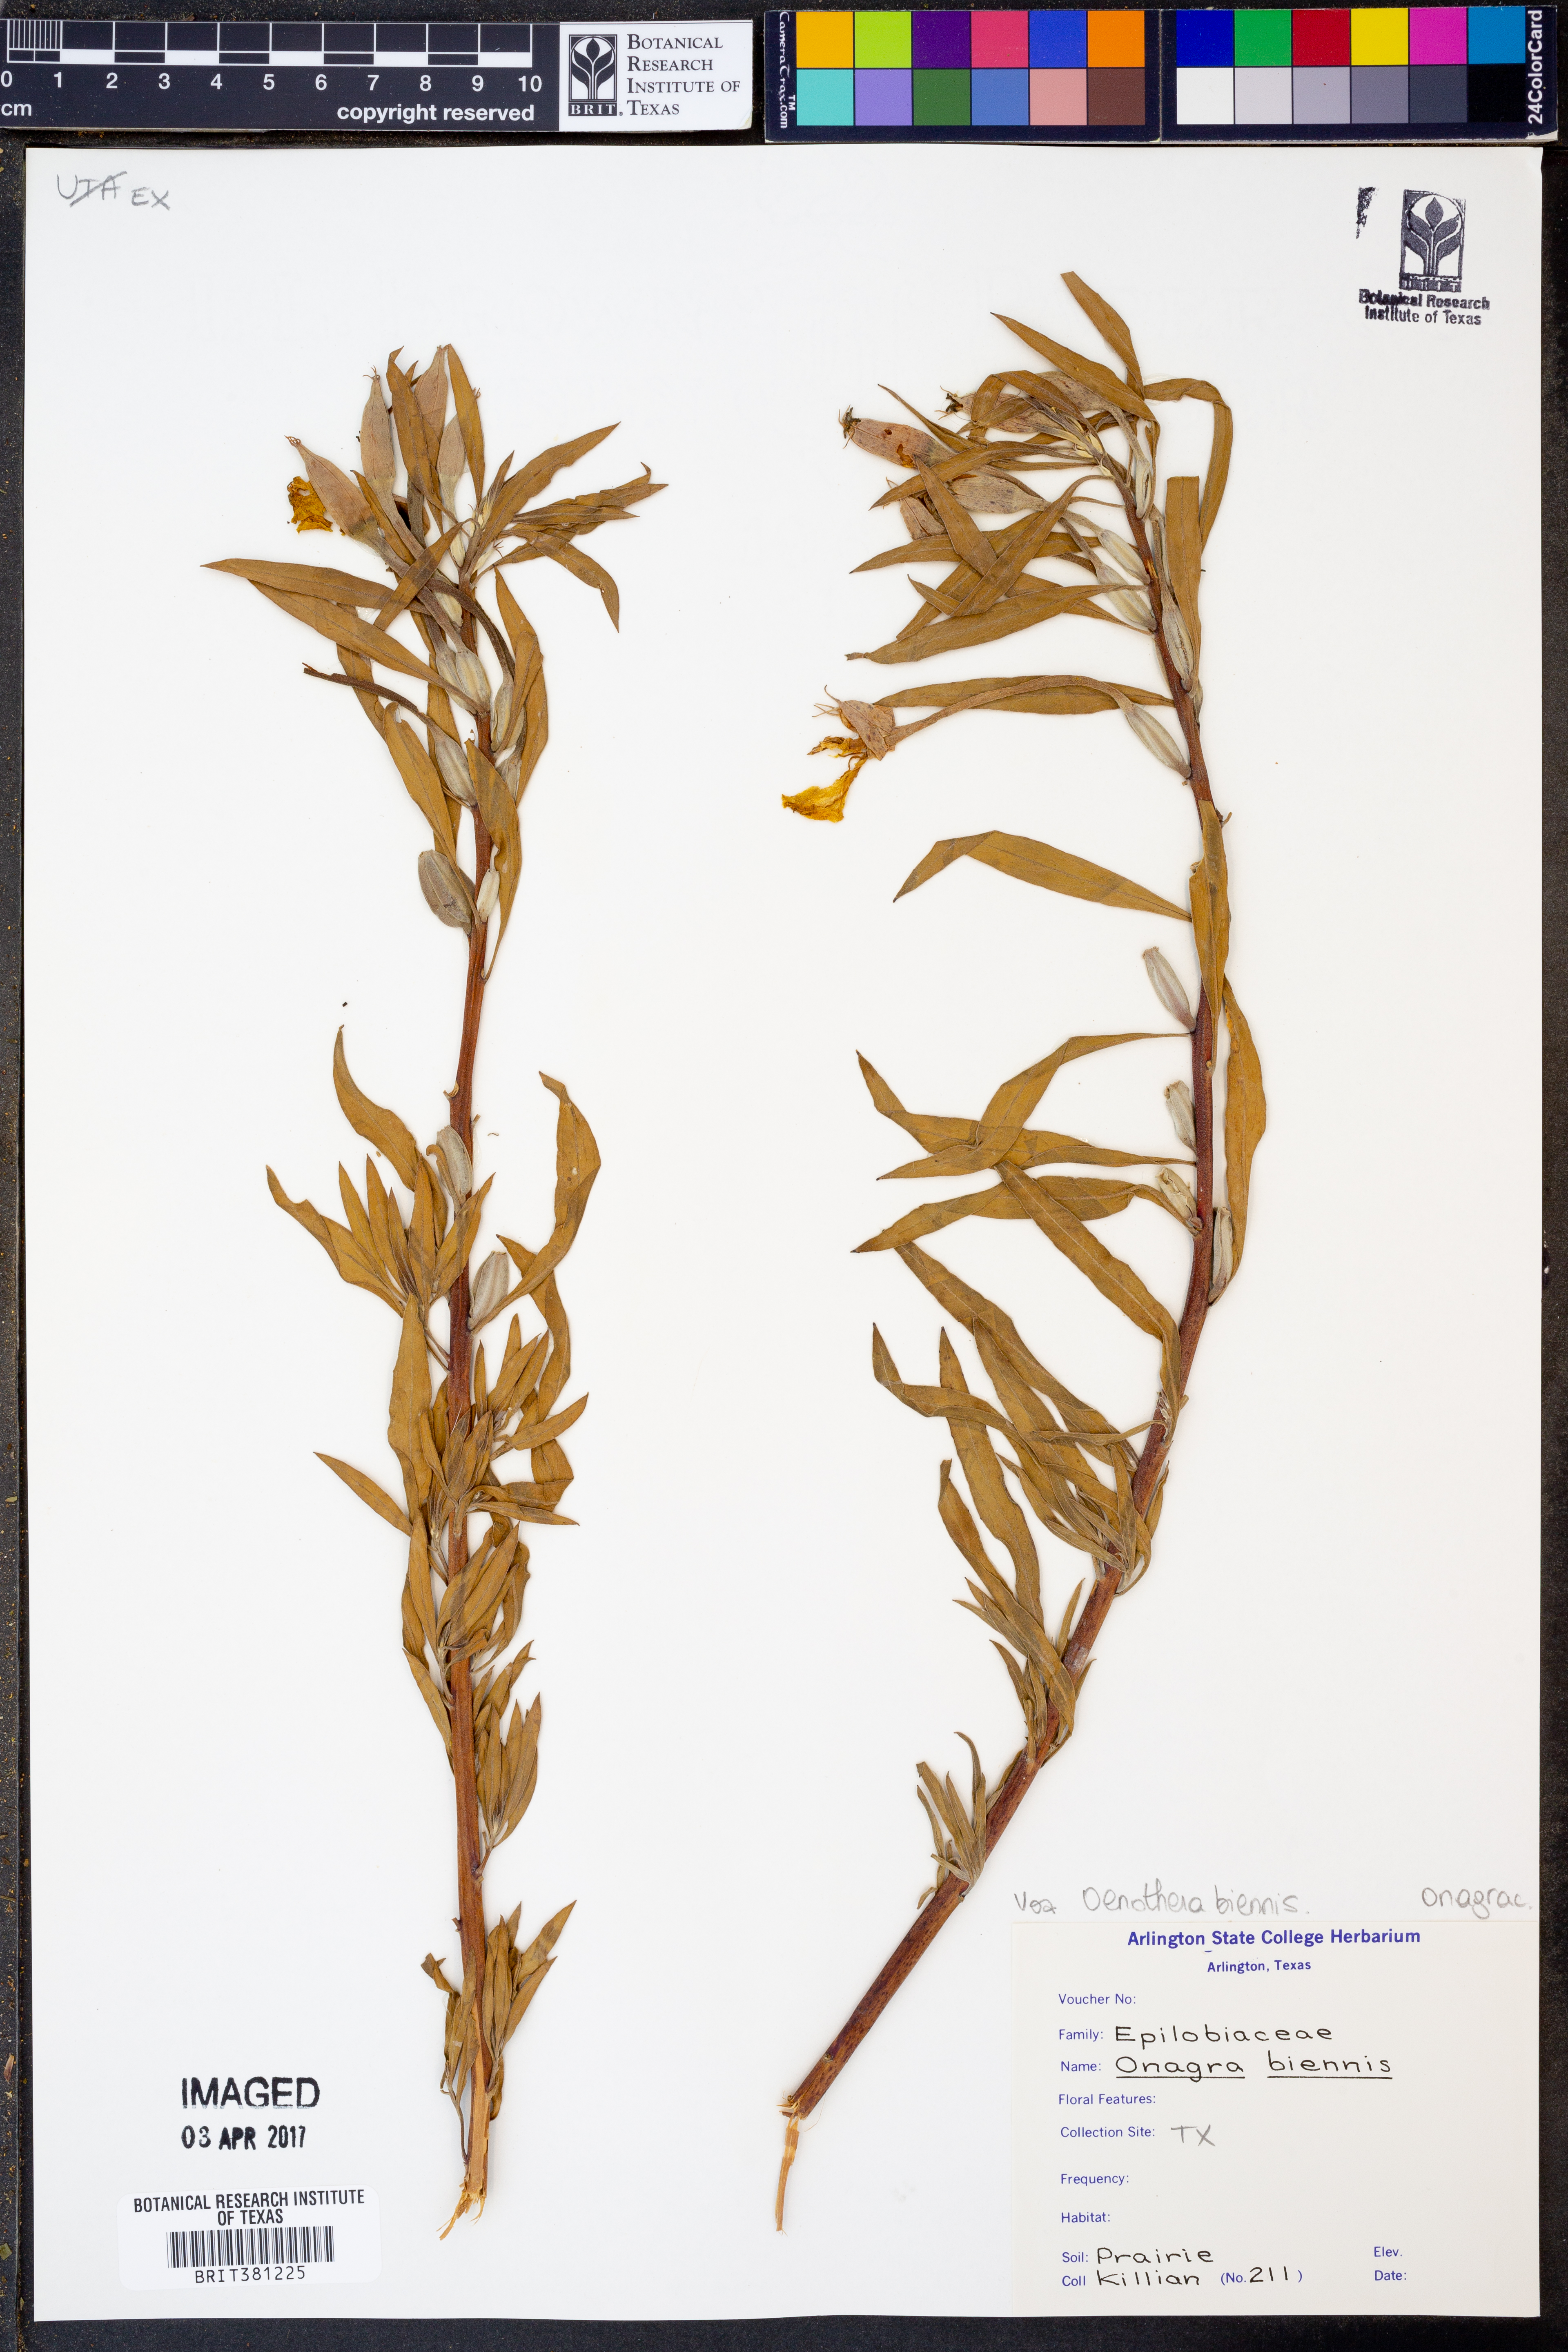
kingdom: Plantae
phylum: Tracheophyta
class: Magnoliopsida
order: Myrtales
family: Onagraceae
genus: Oenothera
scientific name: Oenothera biennis
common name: Common evening-primrose
